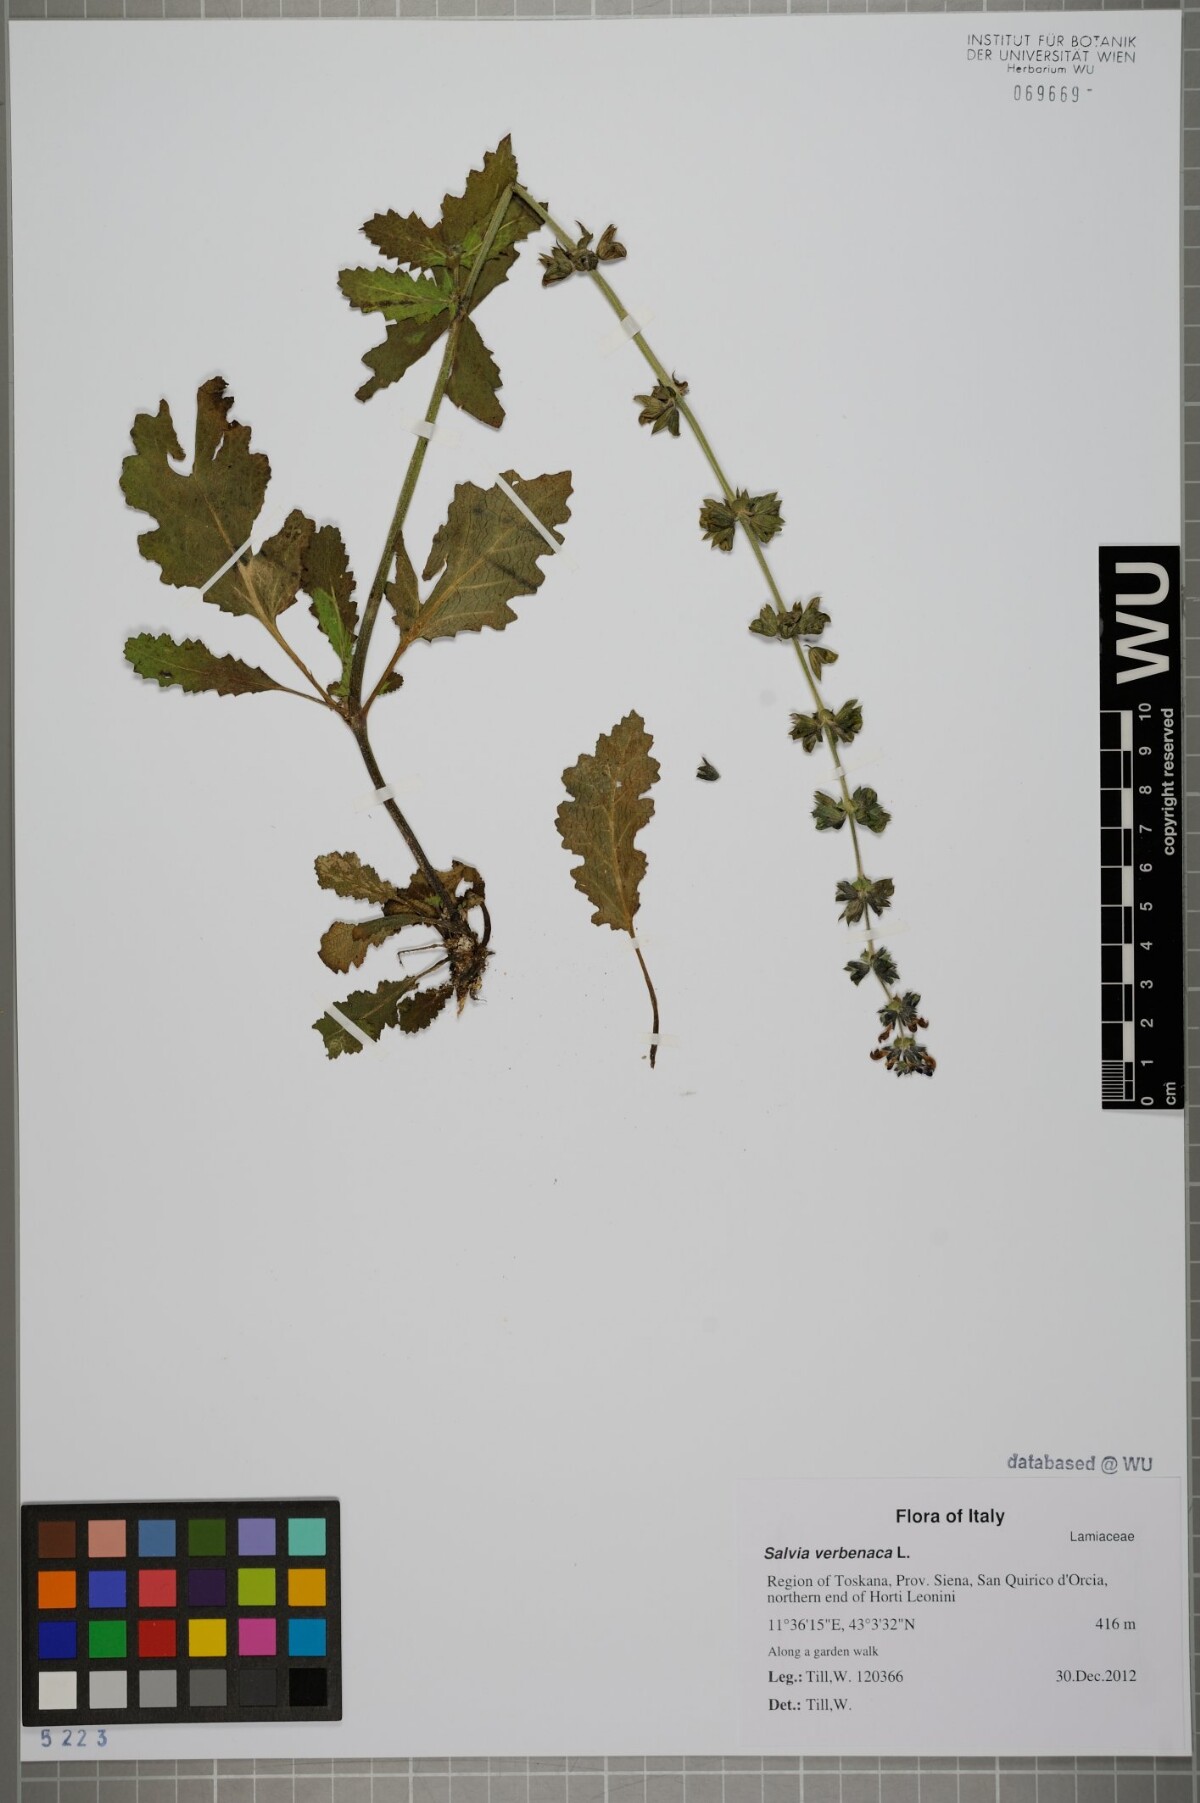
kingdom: Plantae
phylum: Tracheophyta
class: Magnoliopsida
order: Lamiales
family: Lamiaceae
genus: Salvia
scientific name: Salvia verbenaca
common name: Wild clary
